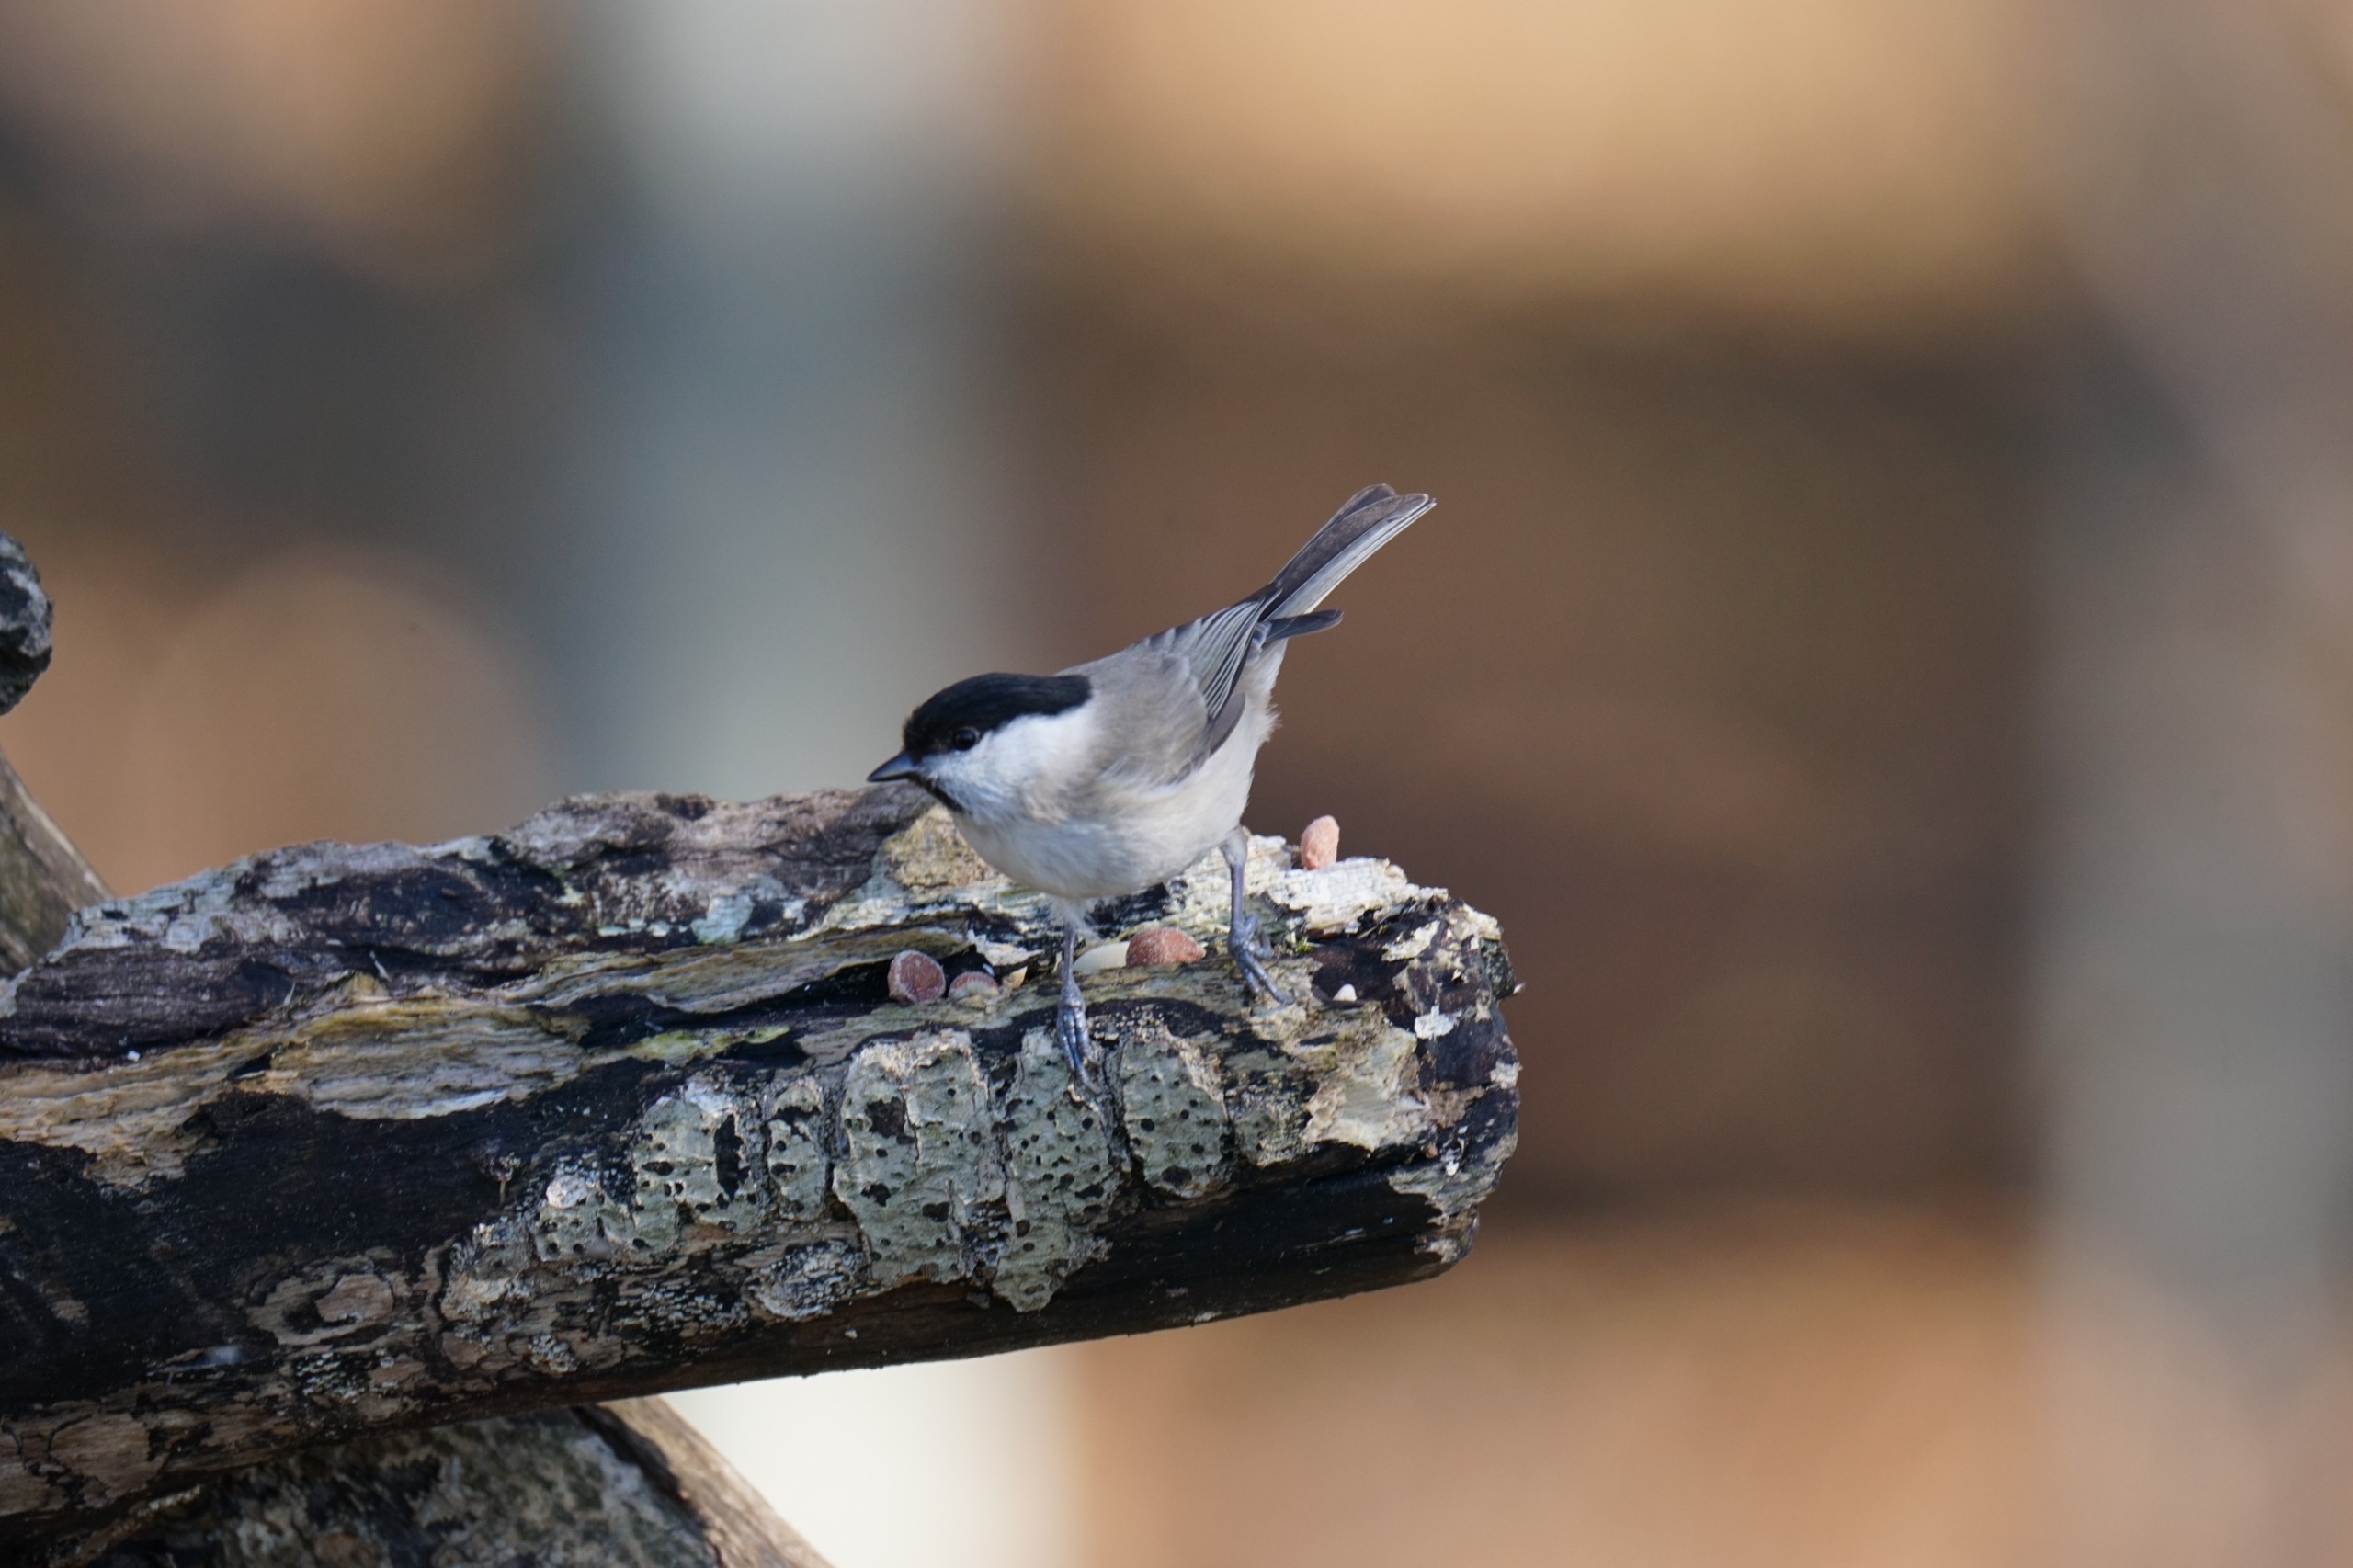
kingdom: Animalia
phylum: Chordata
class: Aves
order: Passeriformes
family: Paridae
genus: Poecile
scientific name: Poecile palustris
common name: Sumpmejse
